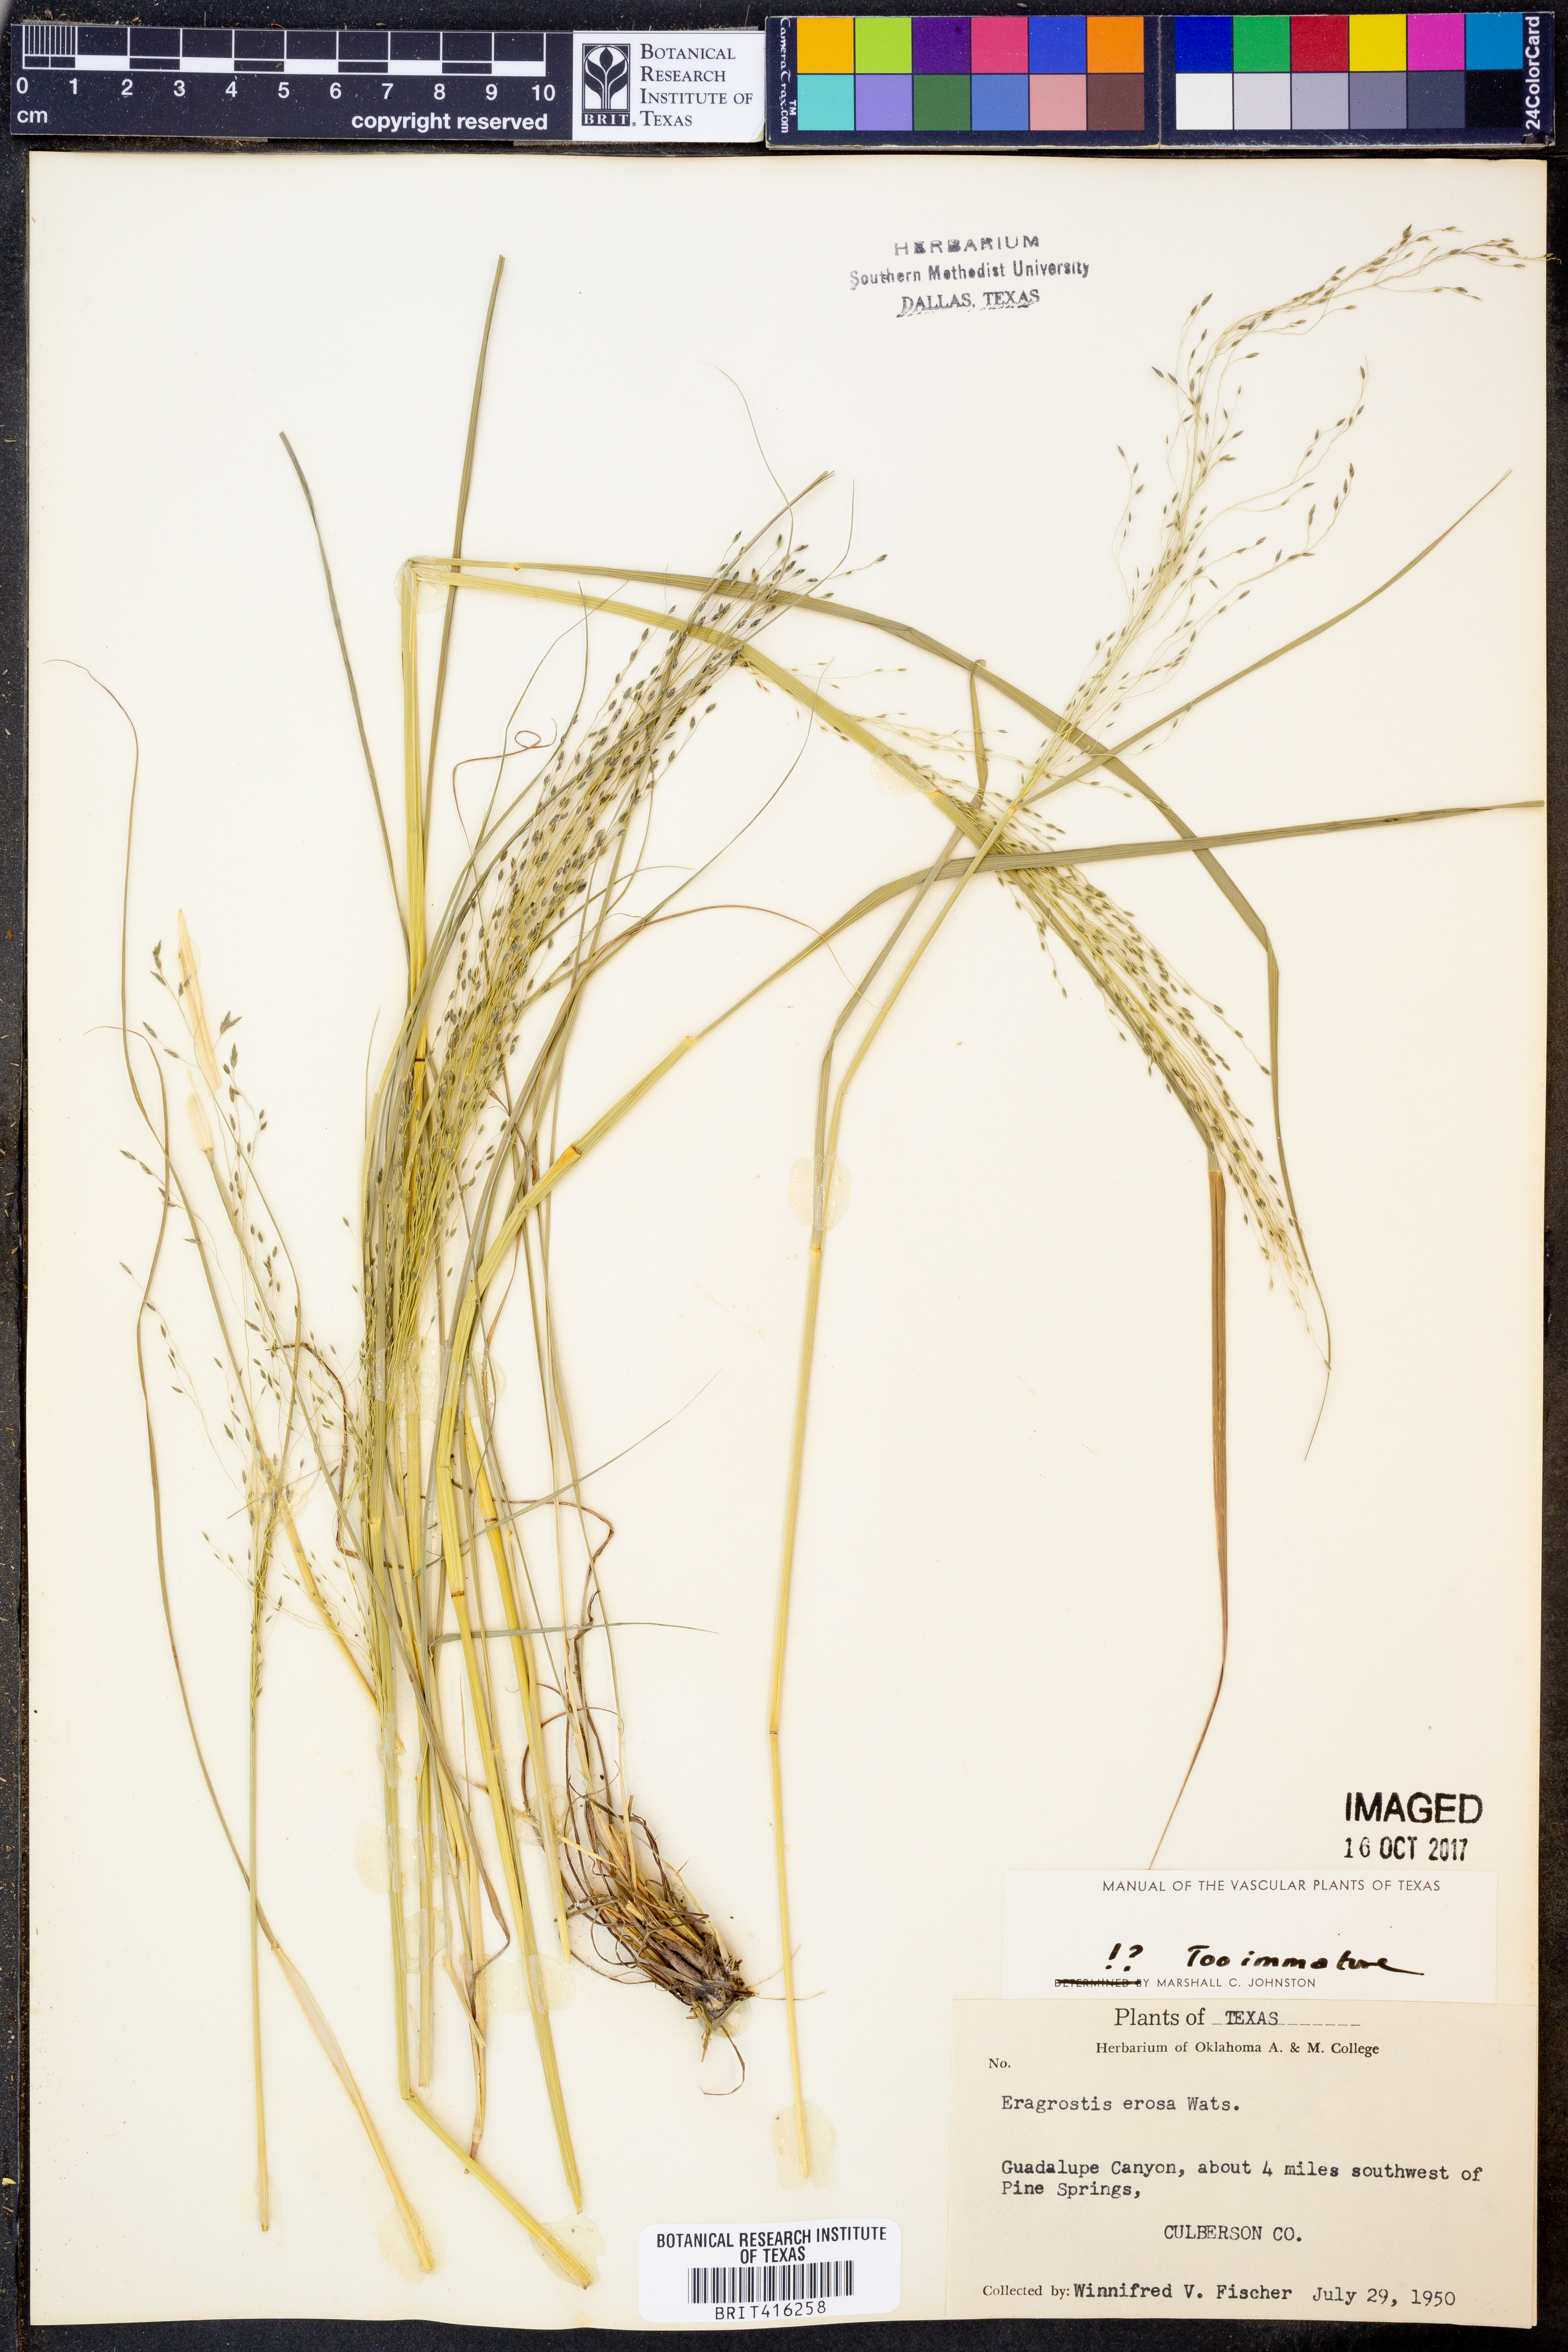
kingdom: Plantae
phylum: Tracheophyta
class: Liliopsida
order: Poales
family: Poaceae
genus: Eragrostis
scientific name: Eragrostis erosa
